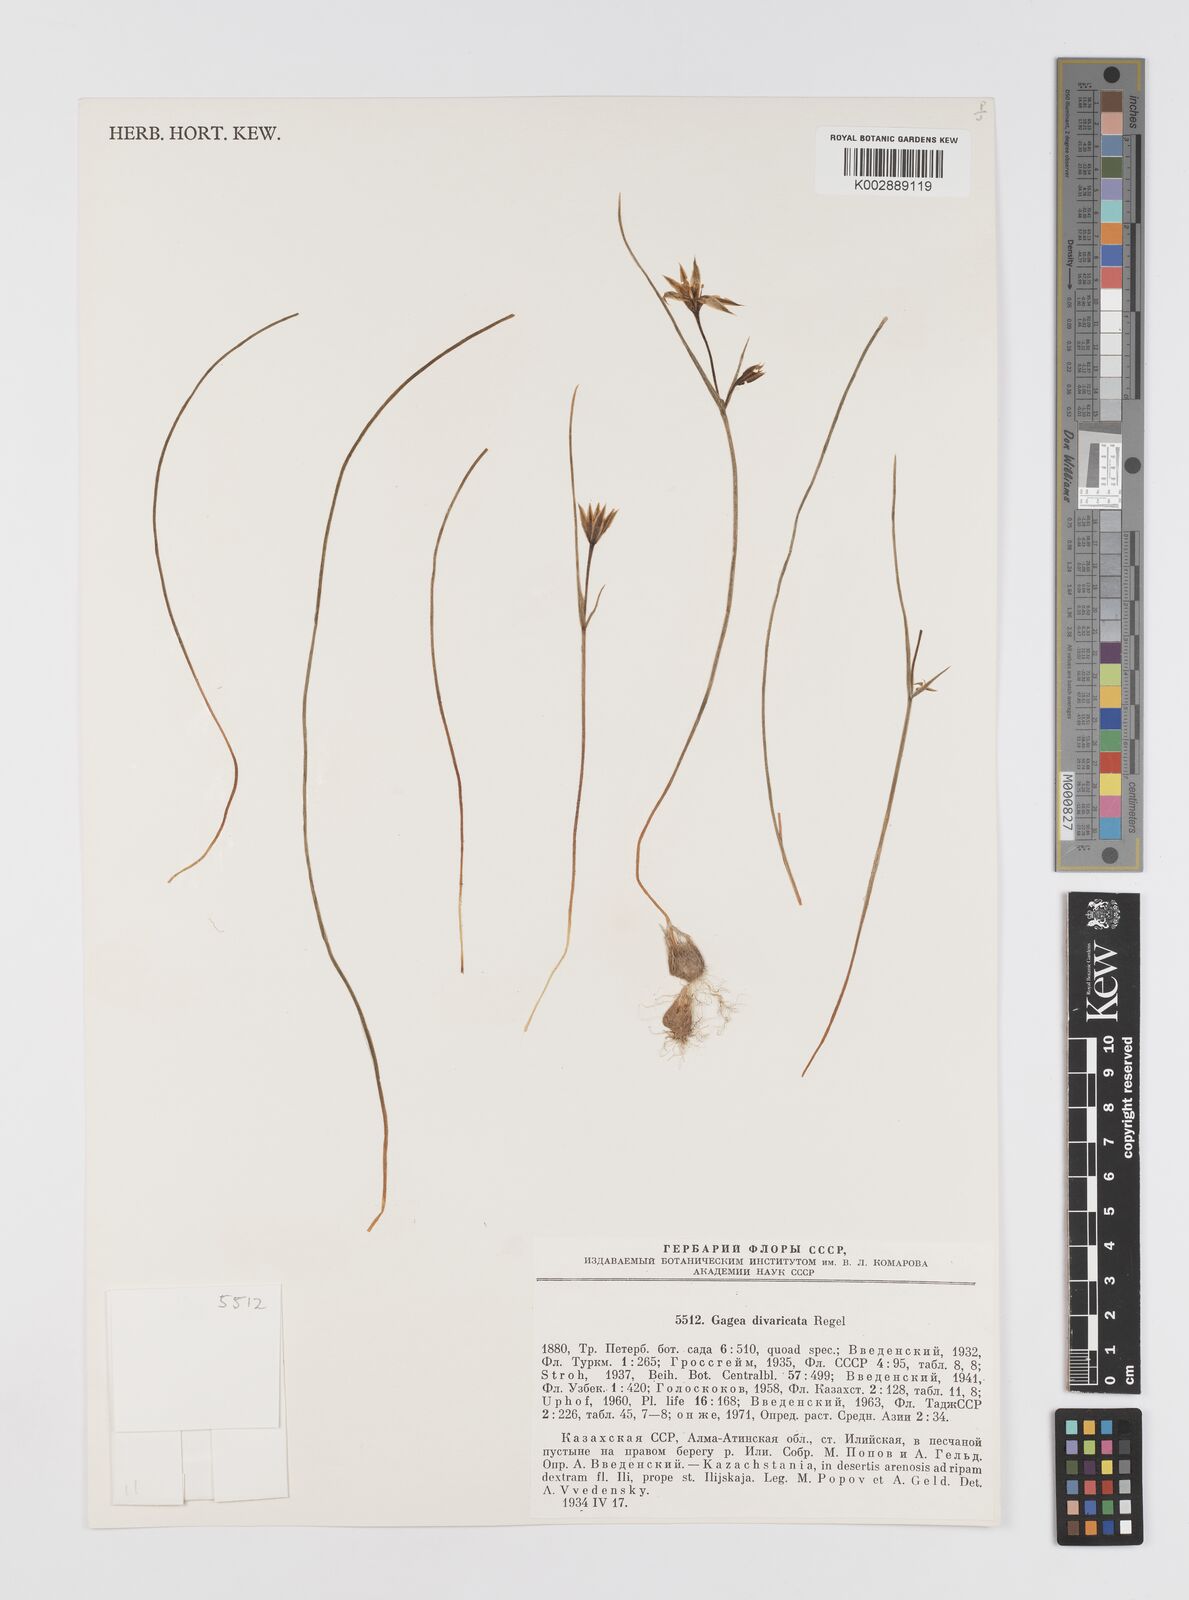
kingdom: Plantae
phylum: Tracheophyta
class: Liliopsida
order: Liliales
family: Liliaceae
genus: Gagea
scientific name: Gagea divaricata
